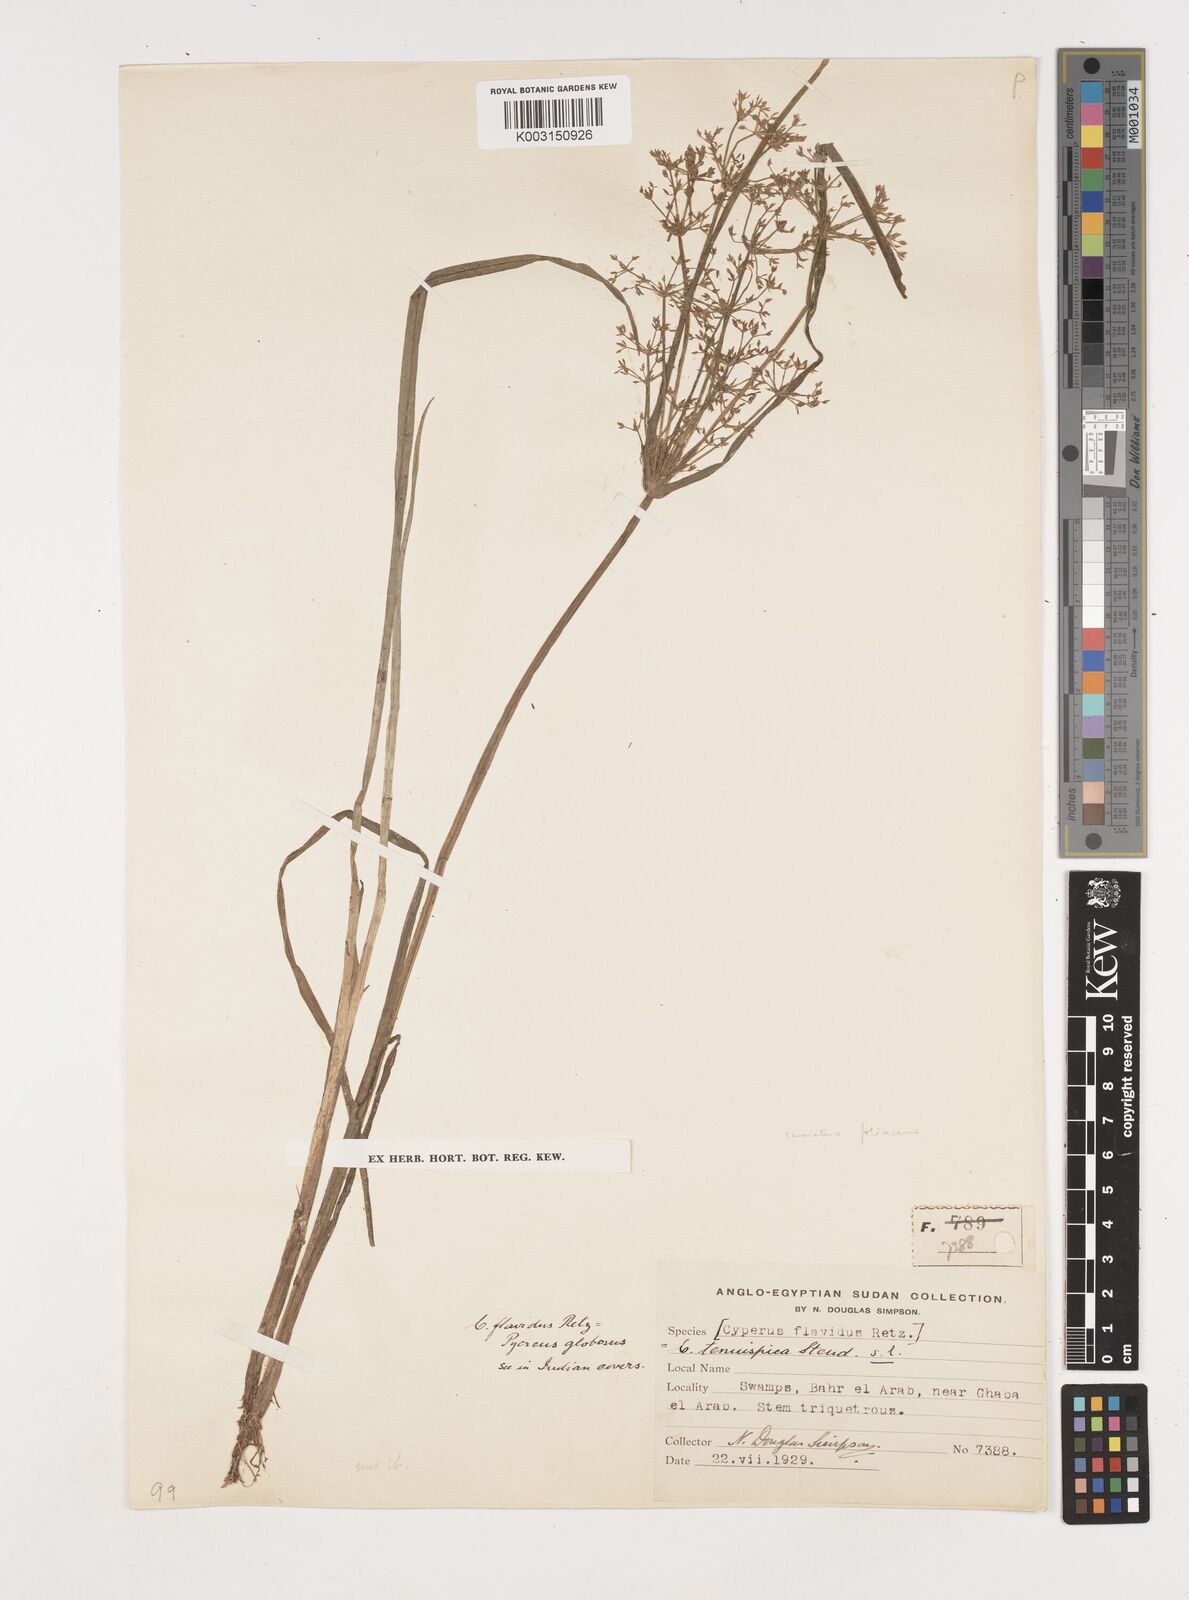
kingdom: Plantae
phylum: Tracheophyta
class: Liliopsida
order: Poales
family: Cyperaceae
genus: Cyperus
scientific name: Cyperus tenuispica
